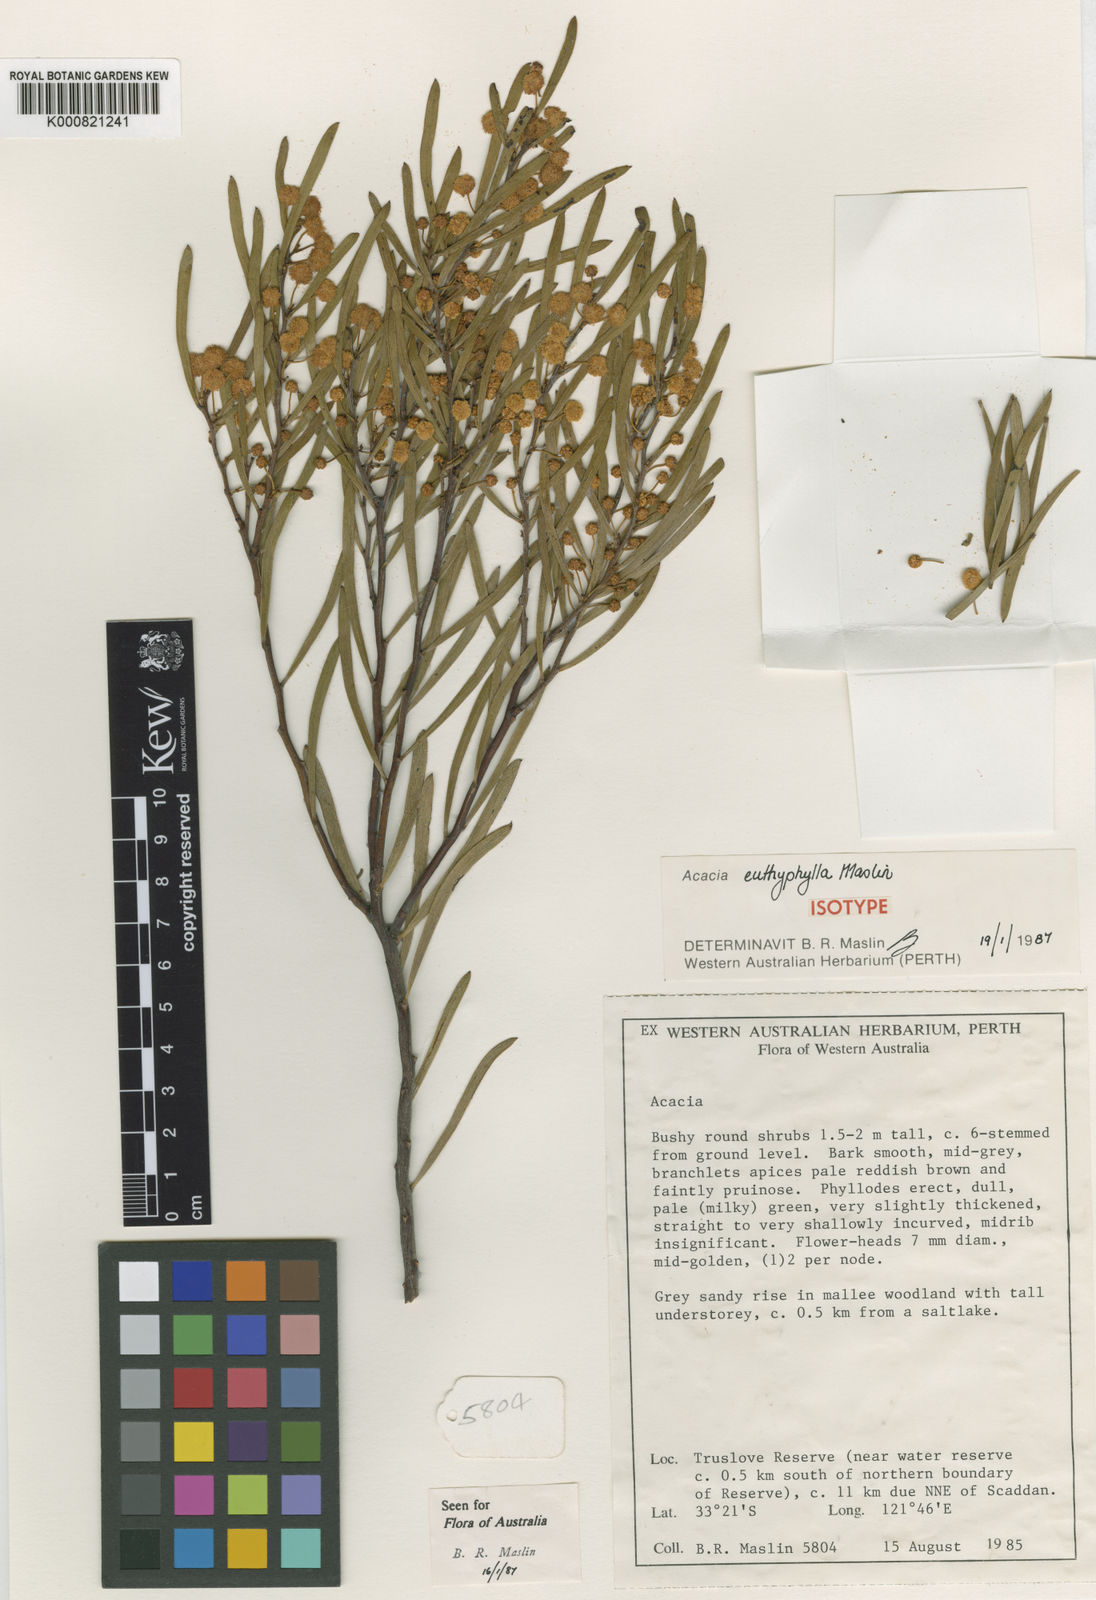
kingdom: Plantae
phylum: Tracheophyta
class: Magnoliopsida
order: Fabales
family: Fabaceae
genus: Acacia
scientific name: Acacia euthyphylla
